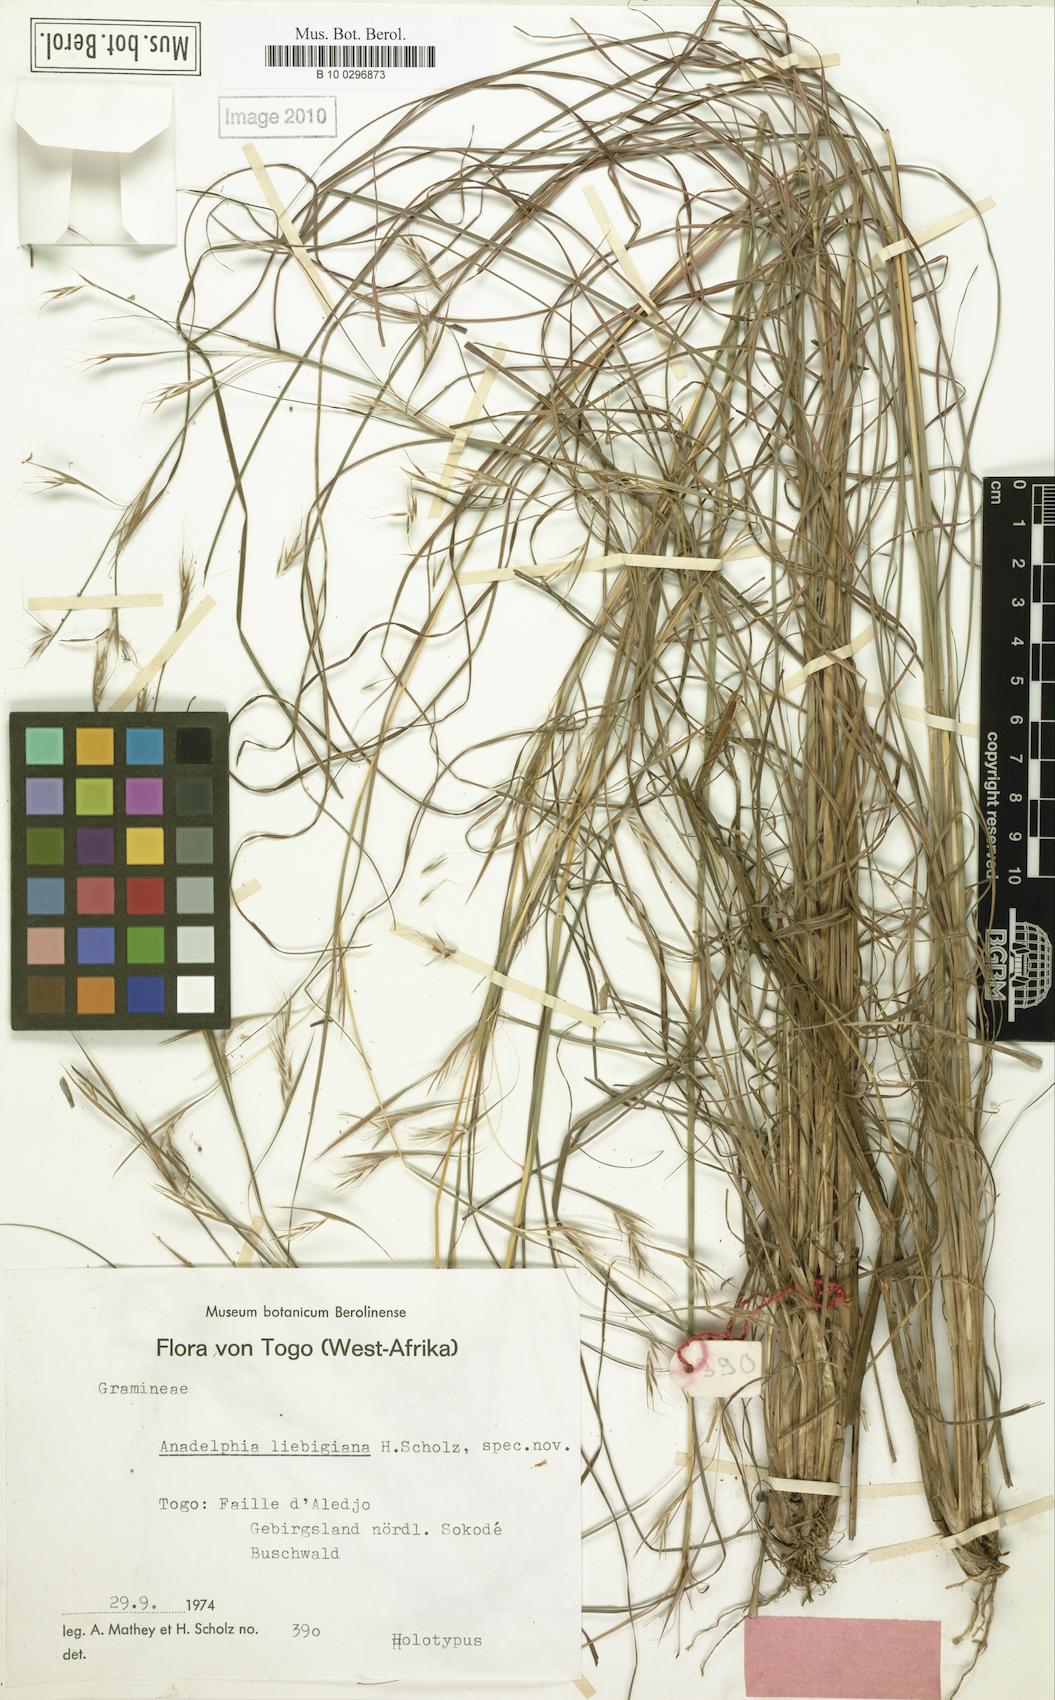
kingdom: Plantae
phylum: Tracheophyta
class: Liliopsida
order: Poales
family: Poaceae
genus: Anadelphia
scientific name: Anadelphia liebigiana
